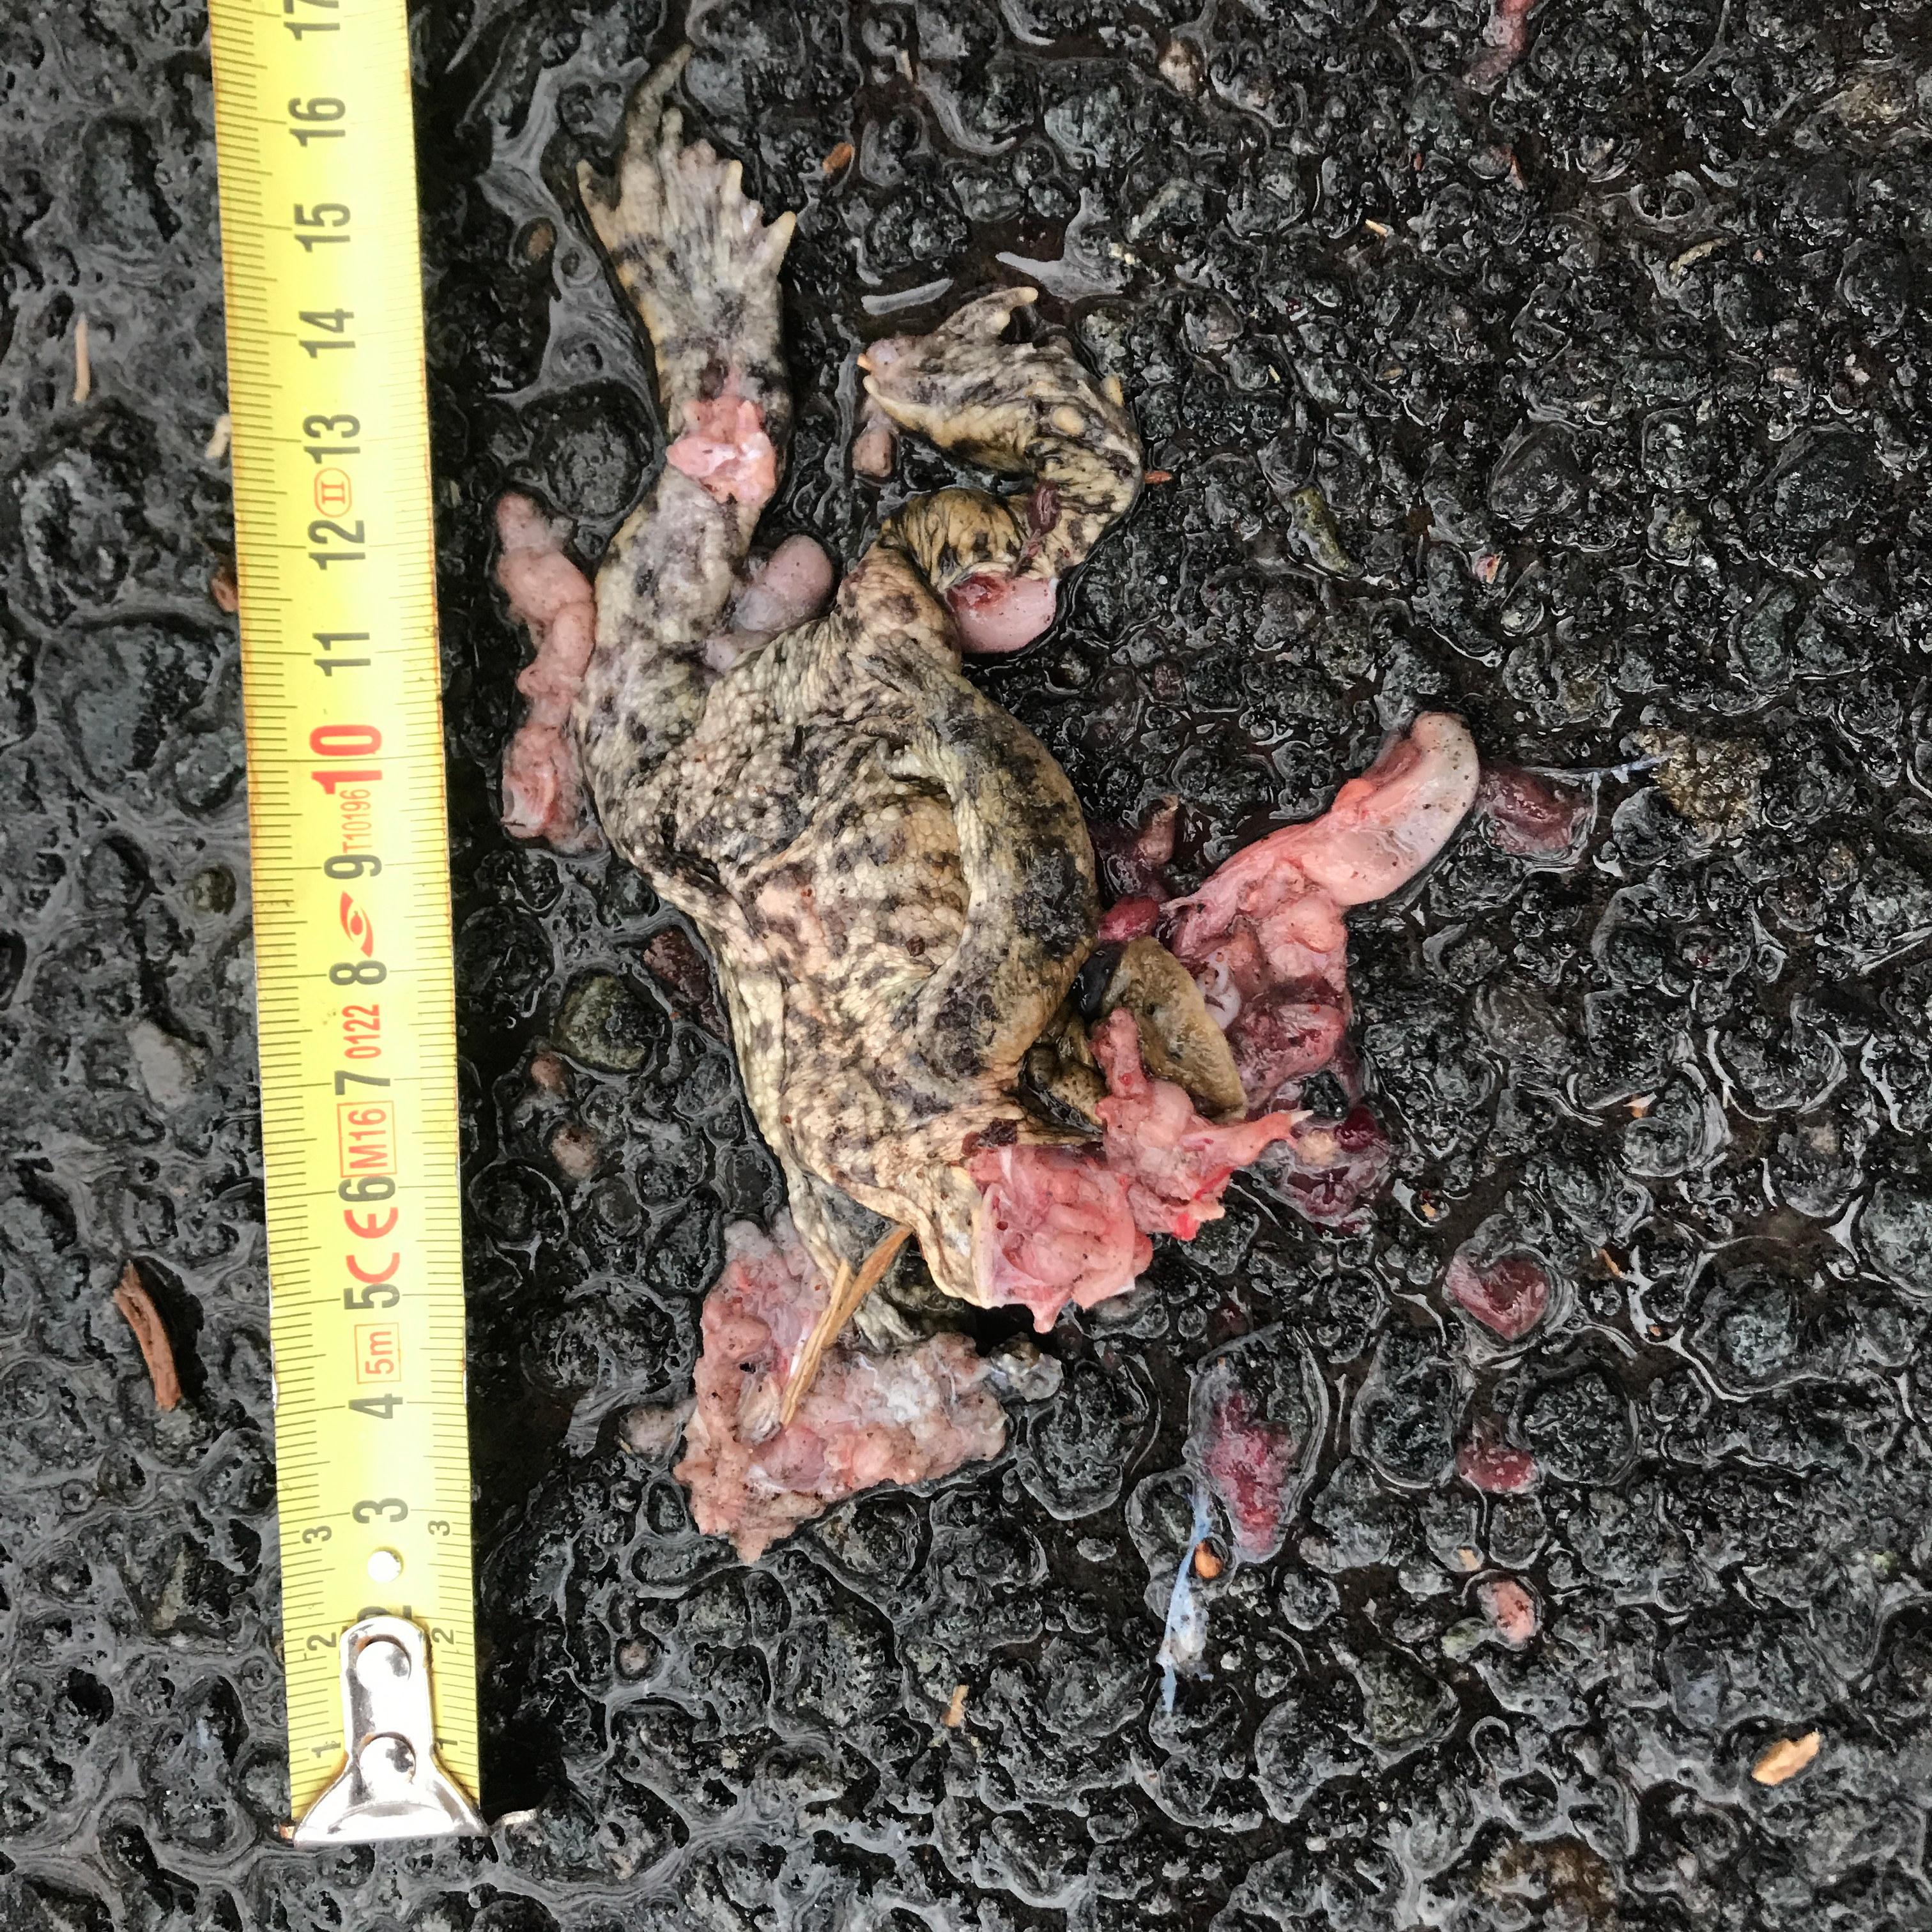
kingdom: Animalia
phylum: Chordata
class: Amphibia
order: Anura
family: Bufonidae
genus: Bufo
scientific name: Bufo bufo
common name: Common toad
